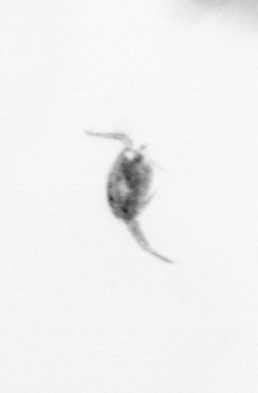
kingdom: Animalia
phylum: Arthropoda
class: Copepoda
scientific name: Copepoda
